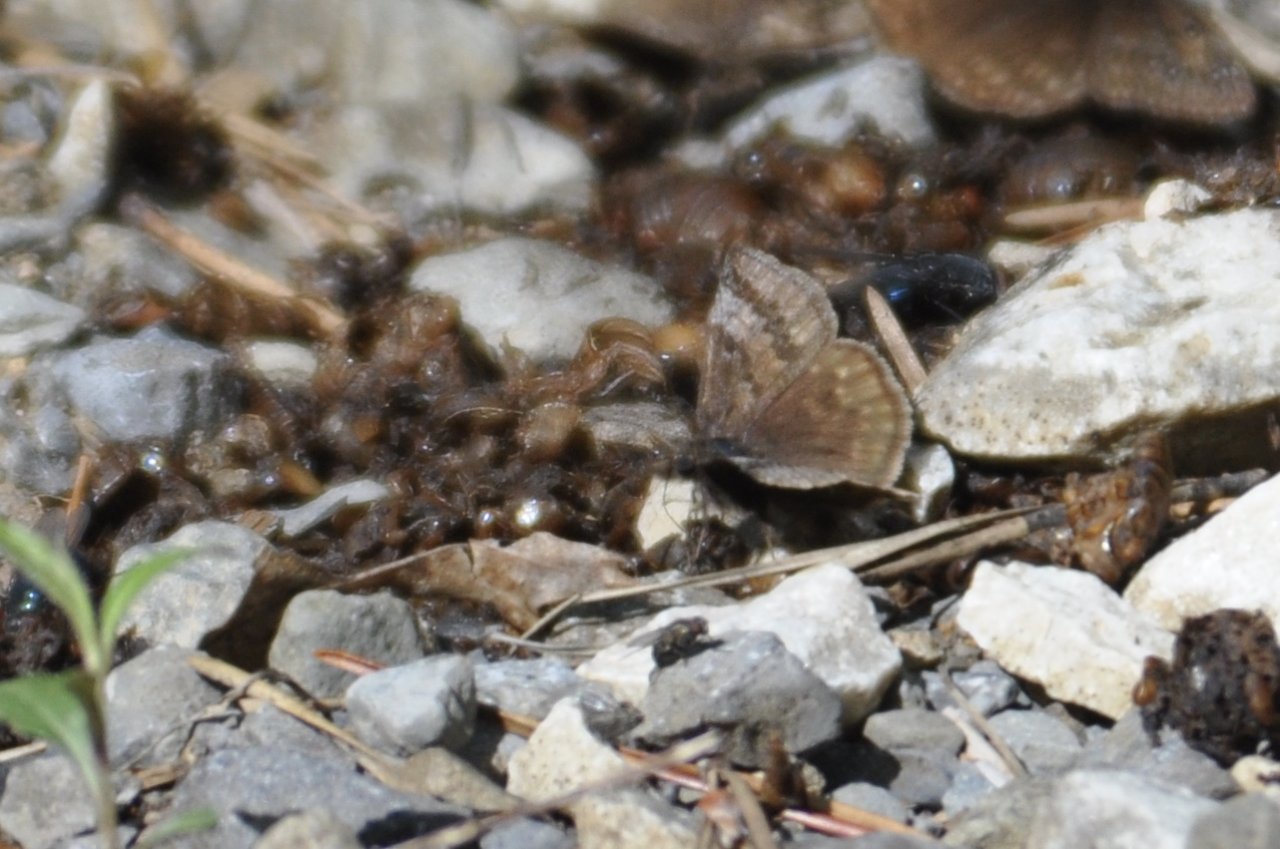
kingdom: Animalia
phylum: Arthropoda
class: Insecta
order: Lepidoptera
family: Hesperiidae
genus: Erynnis
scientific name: Erynnis icelus
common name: Dreamy Duskywing
